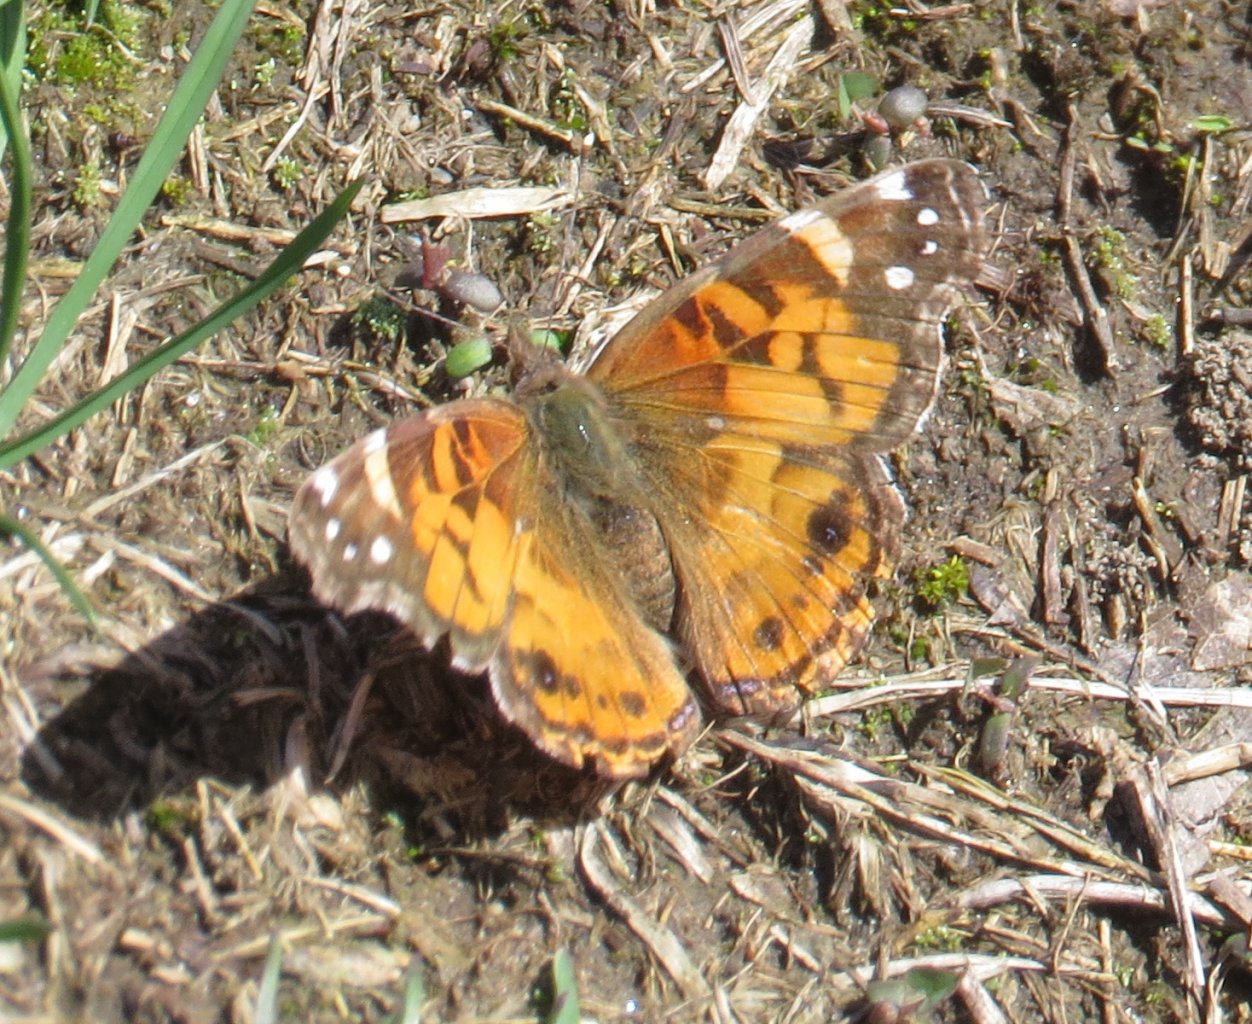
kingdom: Animalia
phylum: Arthropoda
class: Insecta
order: Lepidoptera
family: Nymphalidae
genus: Vanessa
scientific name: Vanessa virginiensis
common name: American Lady
